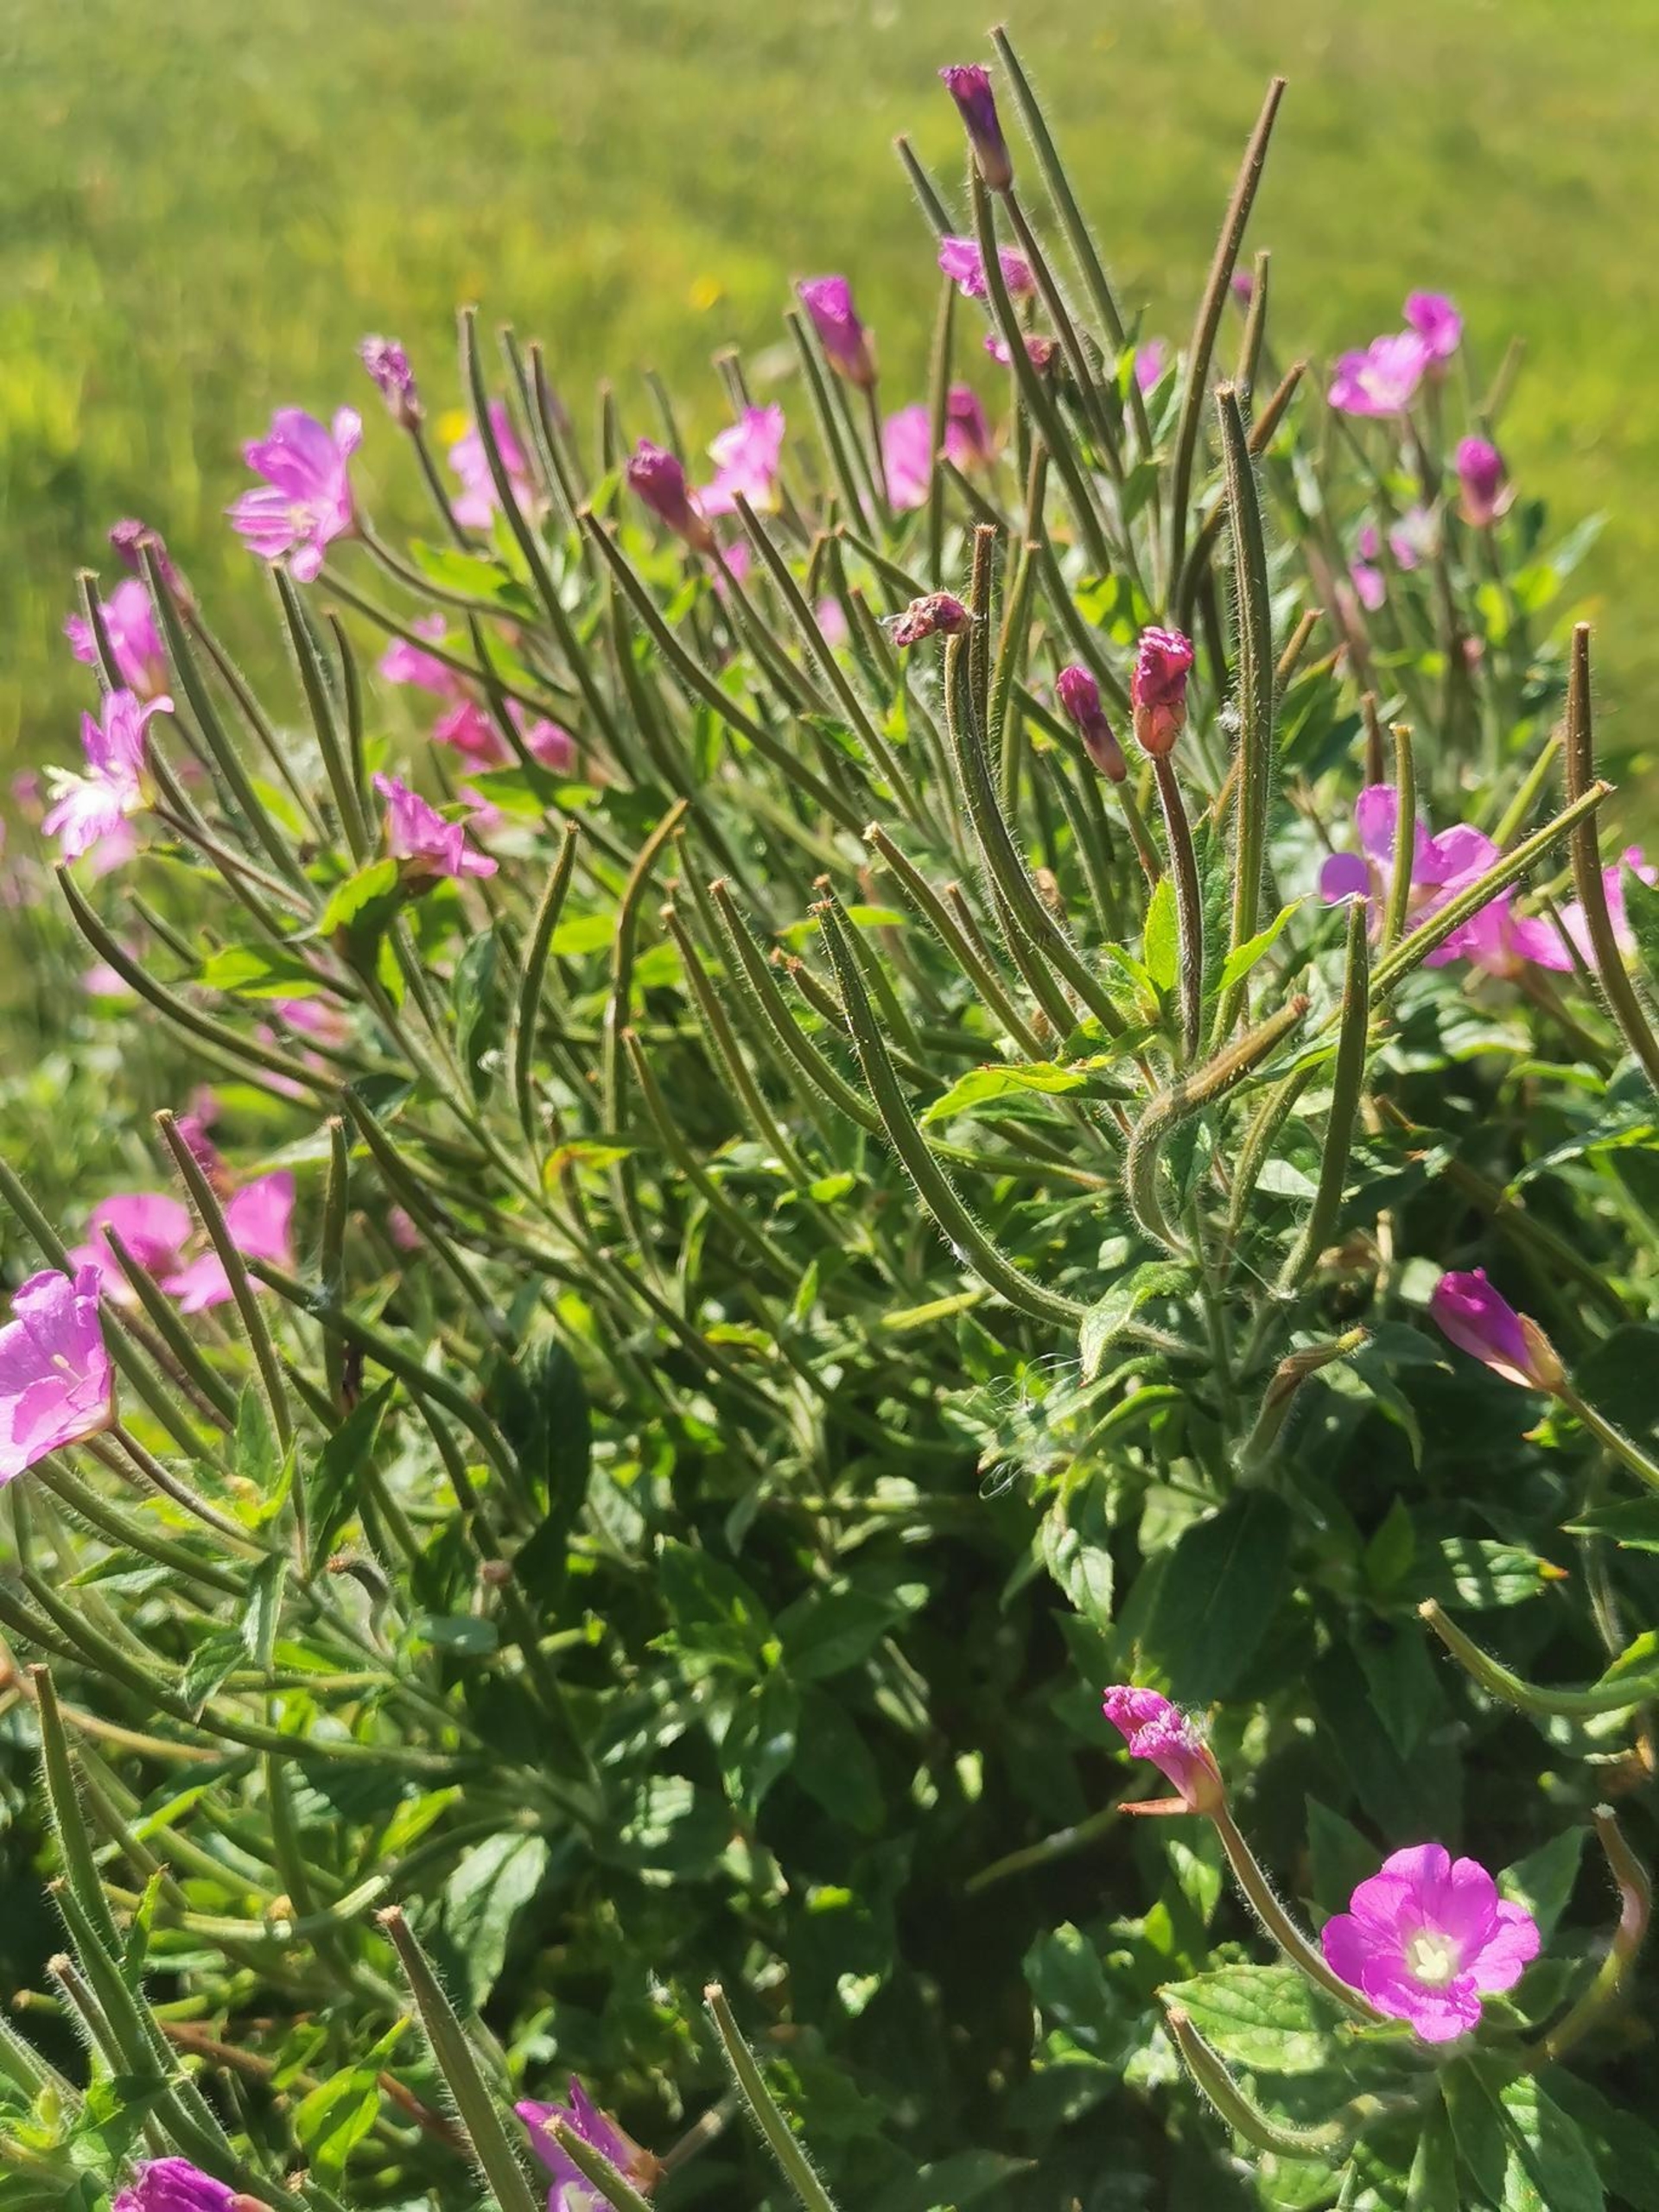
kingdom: Plantae
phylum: Tracheophyta
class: Magnoliopsida
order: Myrtales
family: Onagraceae
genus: Epilobium
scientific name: Epilobium hirsutum
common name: Lådden dueurt
